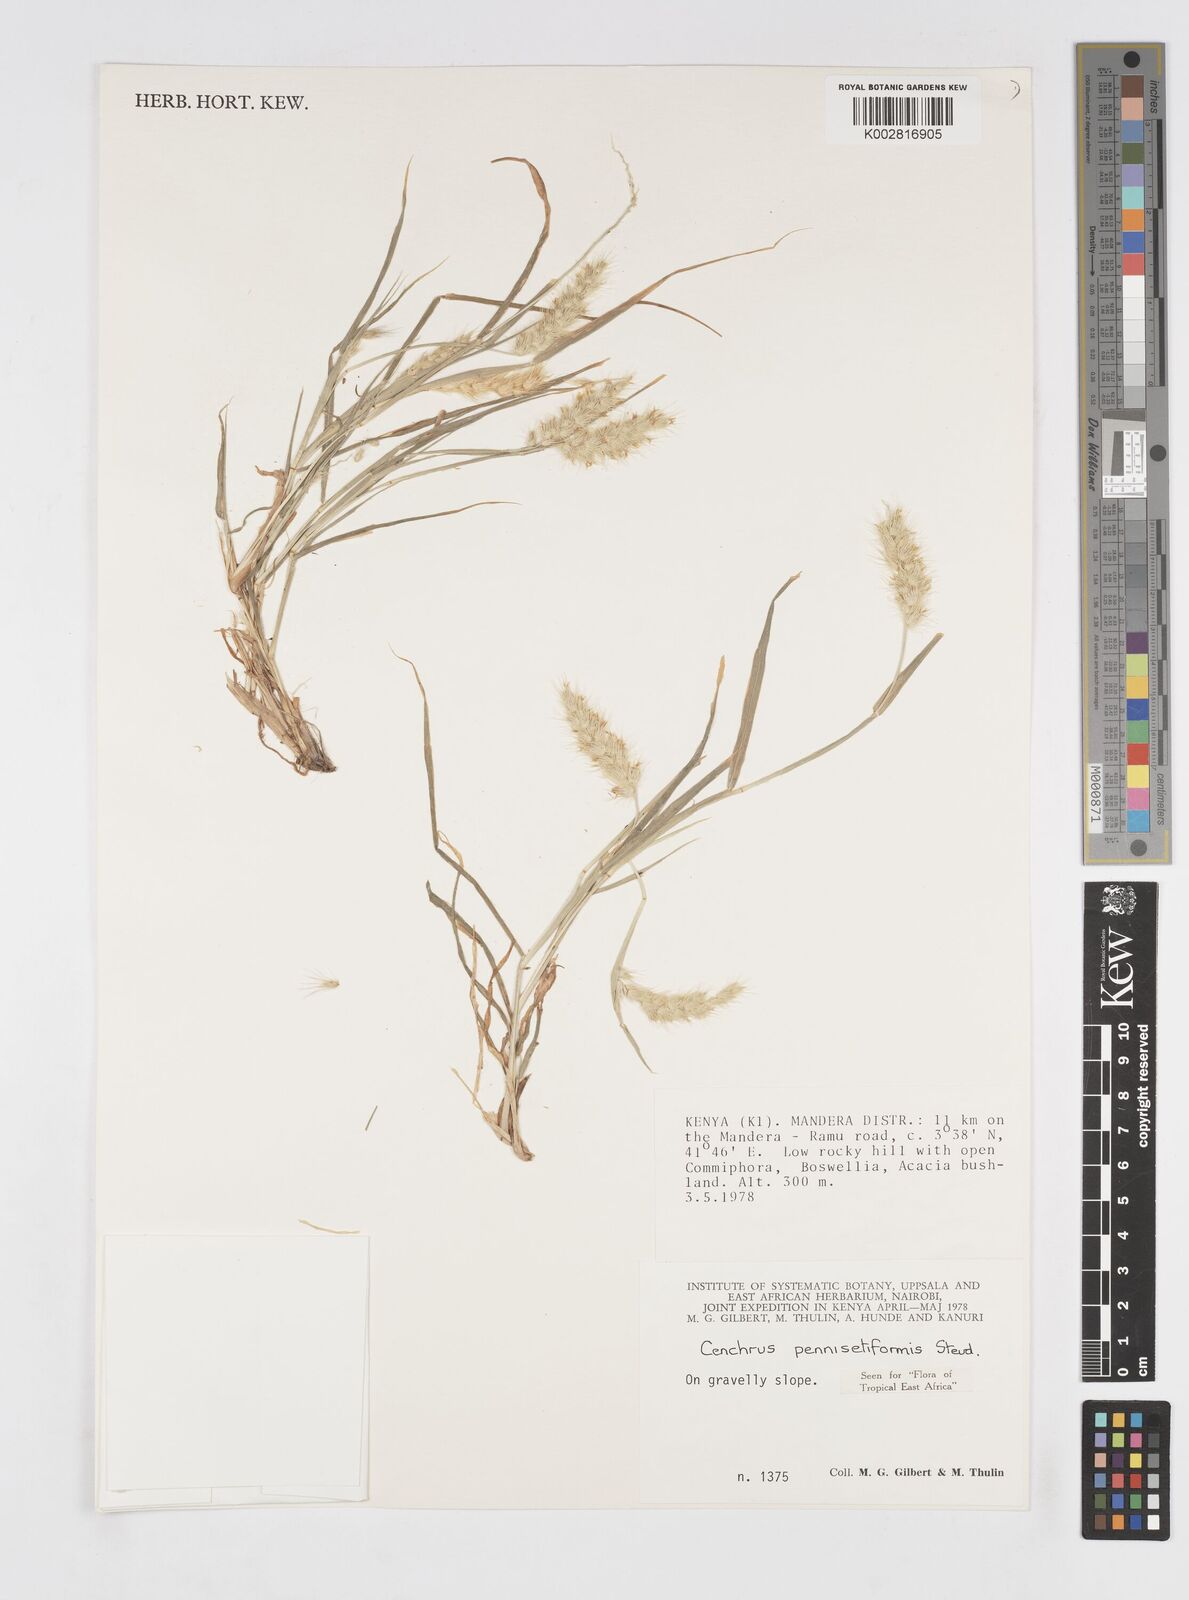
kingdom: Plantae
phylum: Tracheophyta
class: Liliopsida
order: Poales
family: Poaceae
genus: Cenchrus
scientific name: Cenchrus pennisetiformis
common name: Cloncurry
